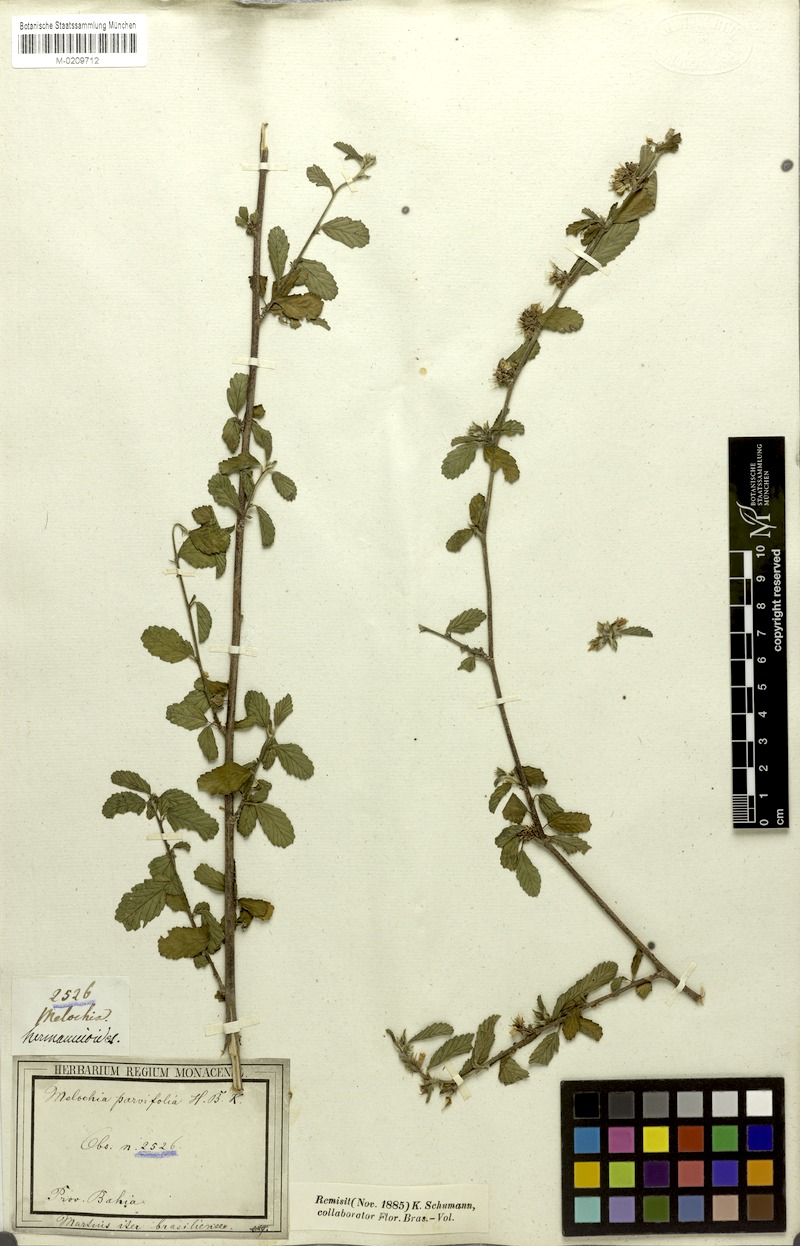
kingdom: Plantae
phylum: Tracheophyta
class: Magnoliopsida
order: Malvales
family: Malvaceae
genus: Melochia
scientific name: Melochia parvifolia
